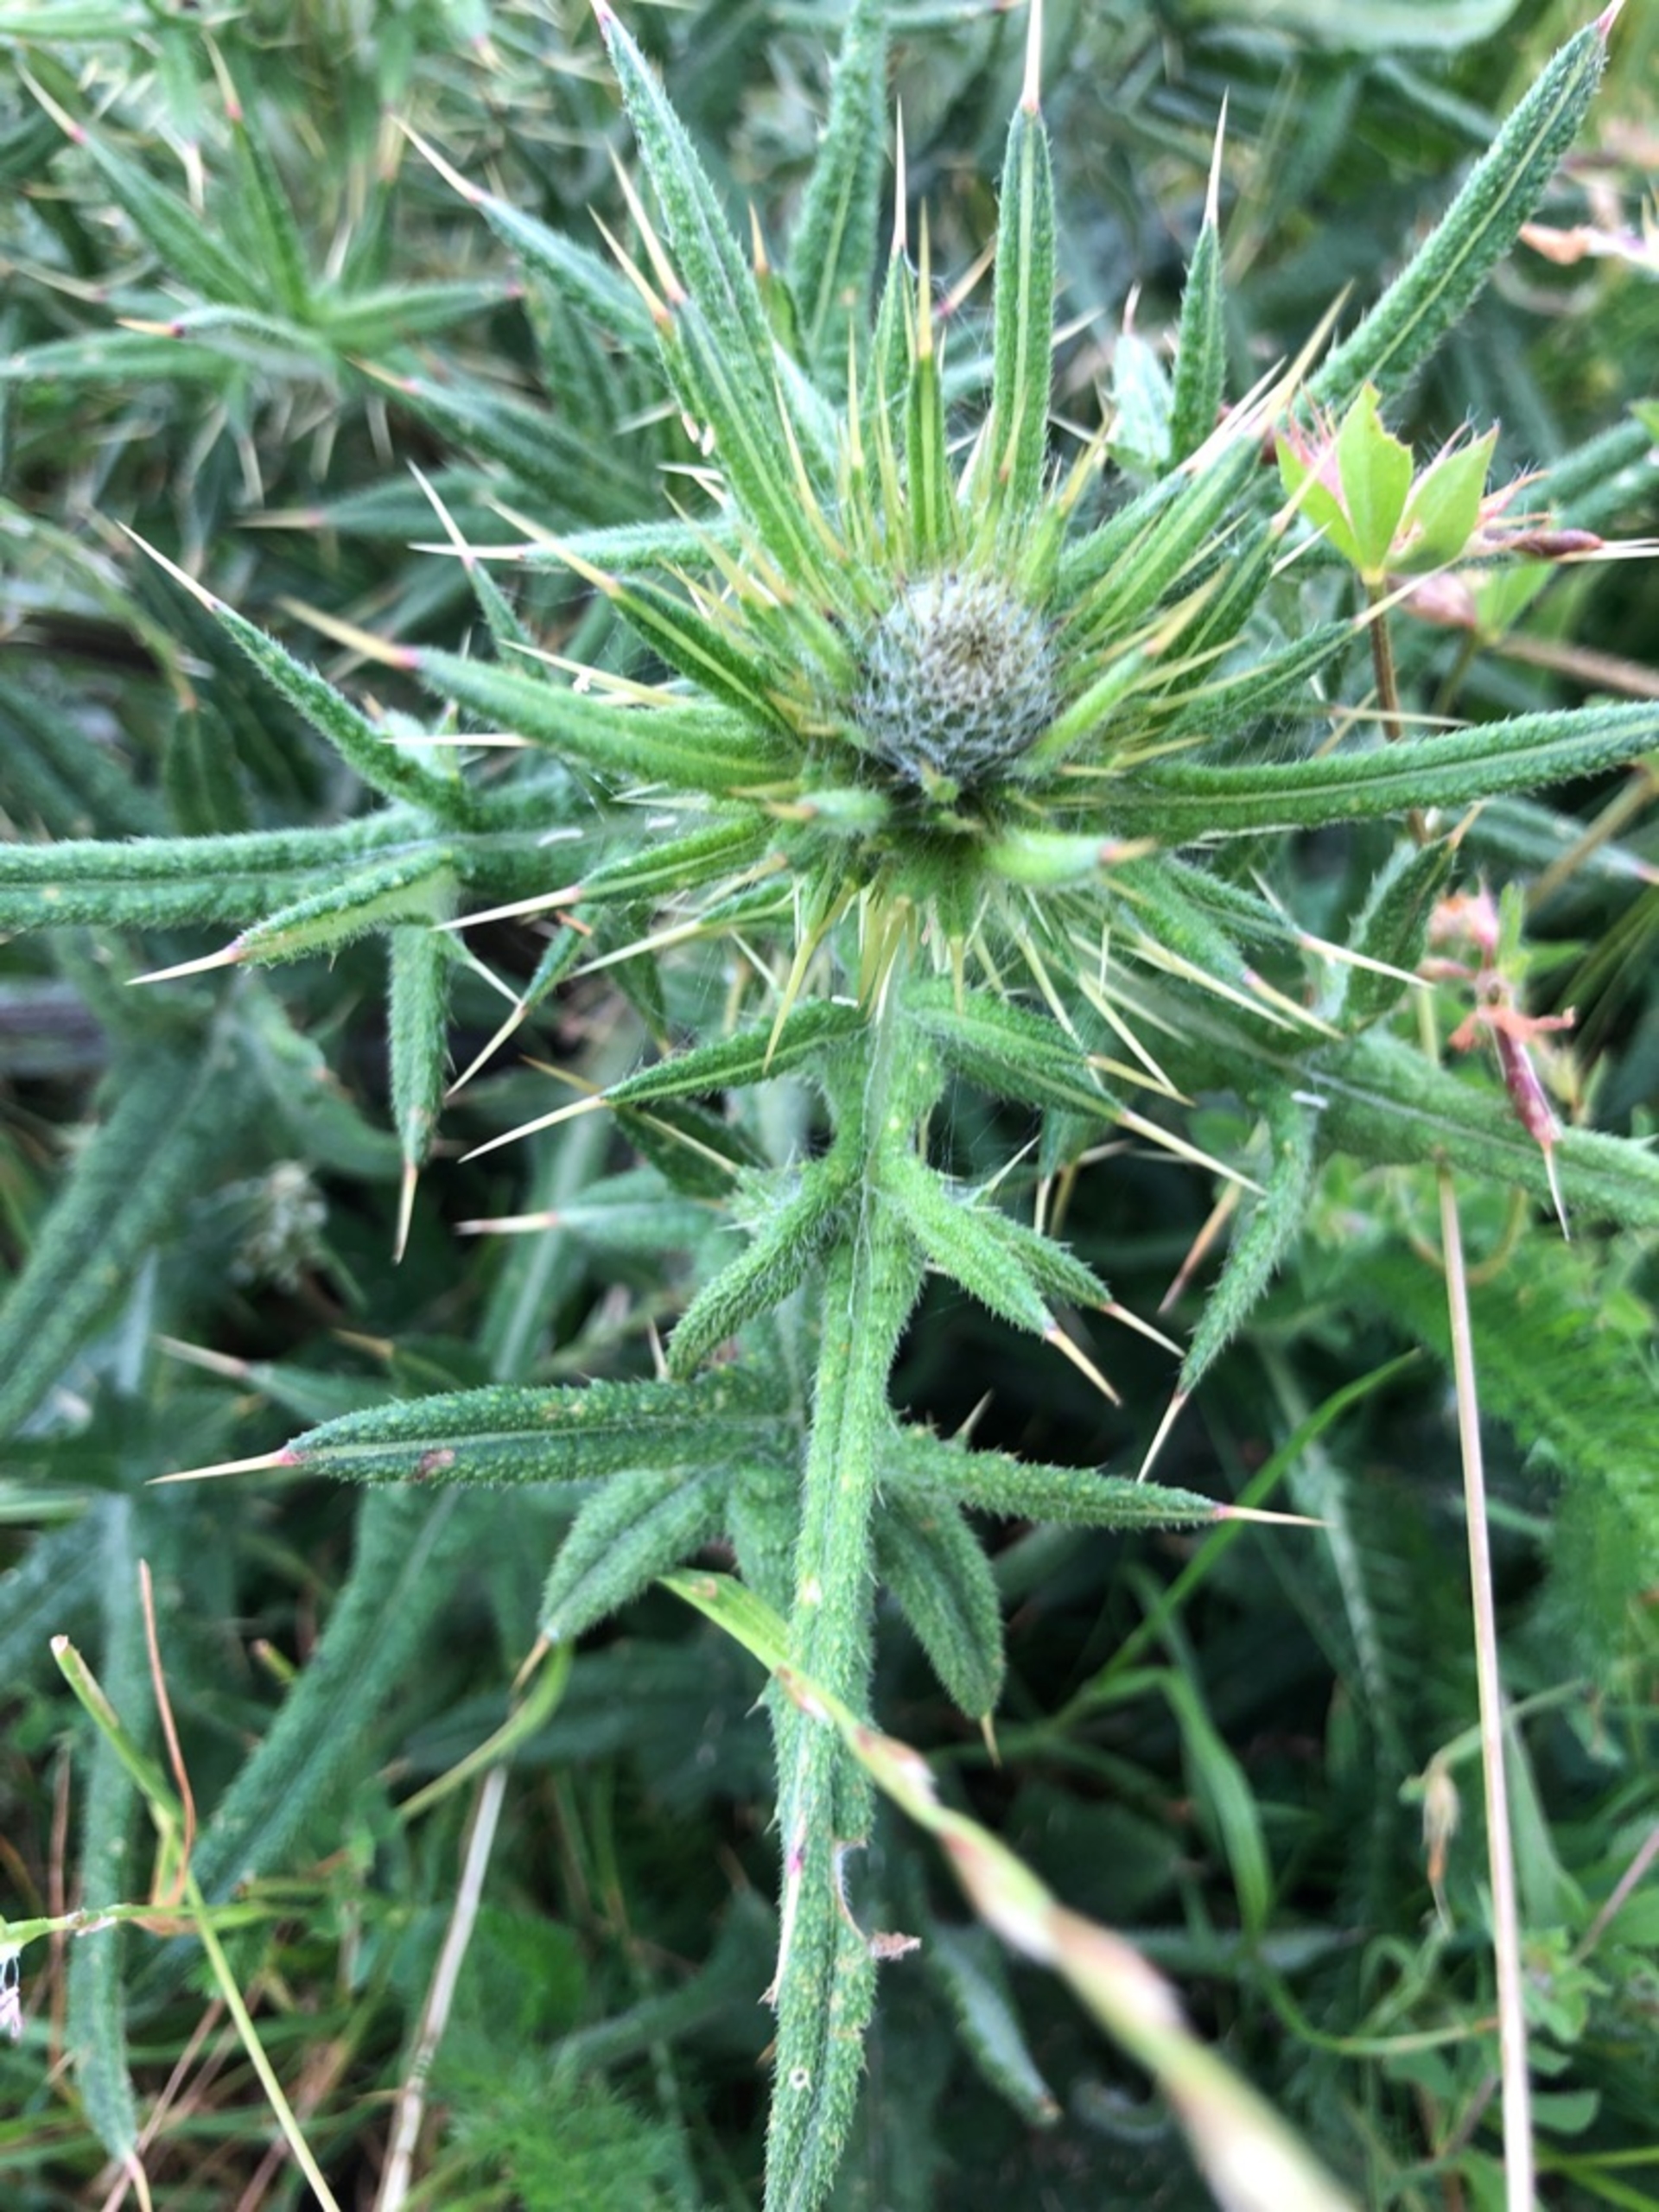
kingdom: Plantae
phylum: Tracheophyta
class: Magnoliopsida
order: Asterales
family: Asteraceae
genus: Cirsium
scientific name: Cirsium vulgare
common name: Horse-tidsel
